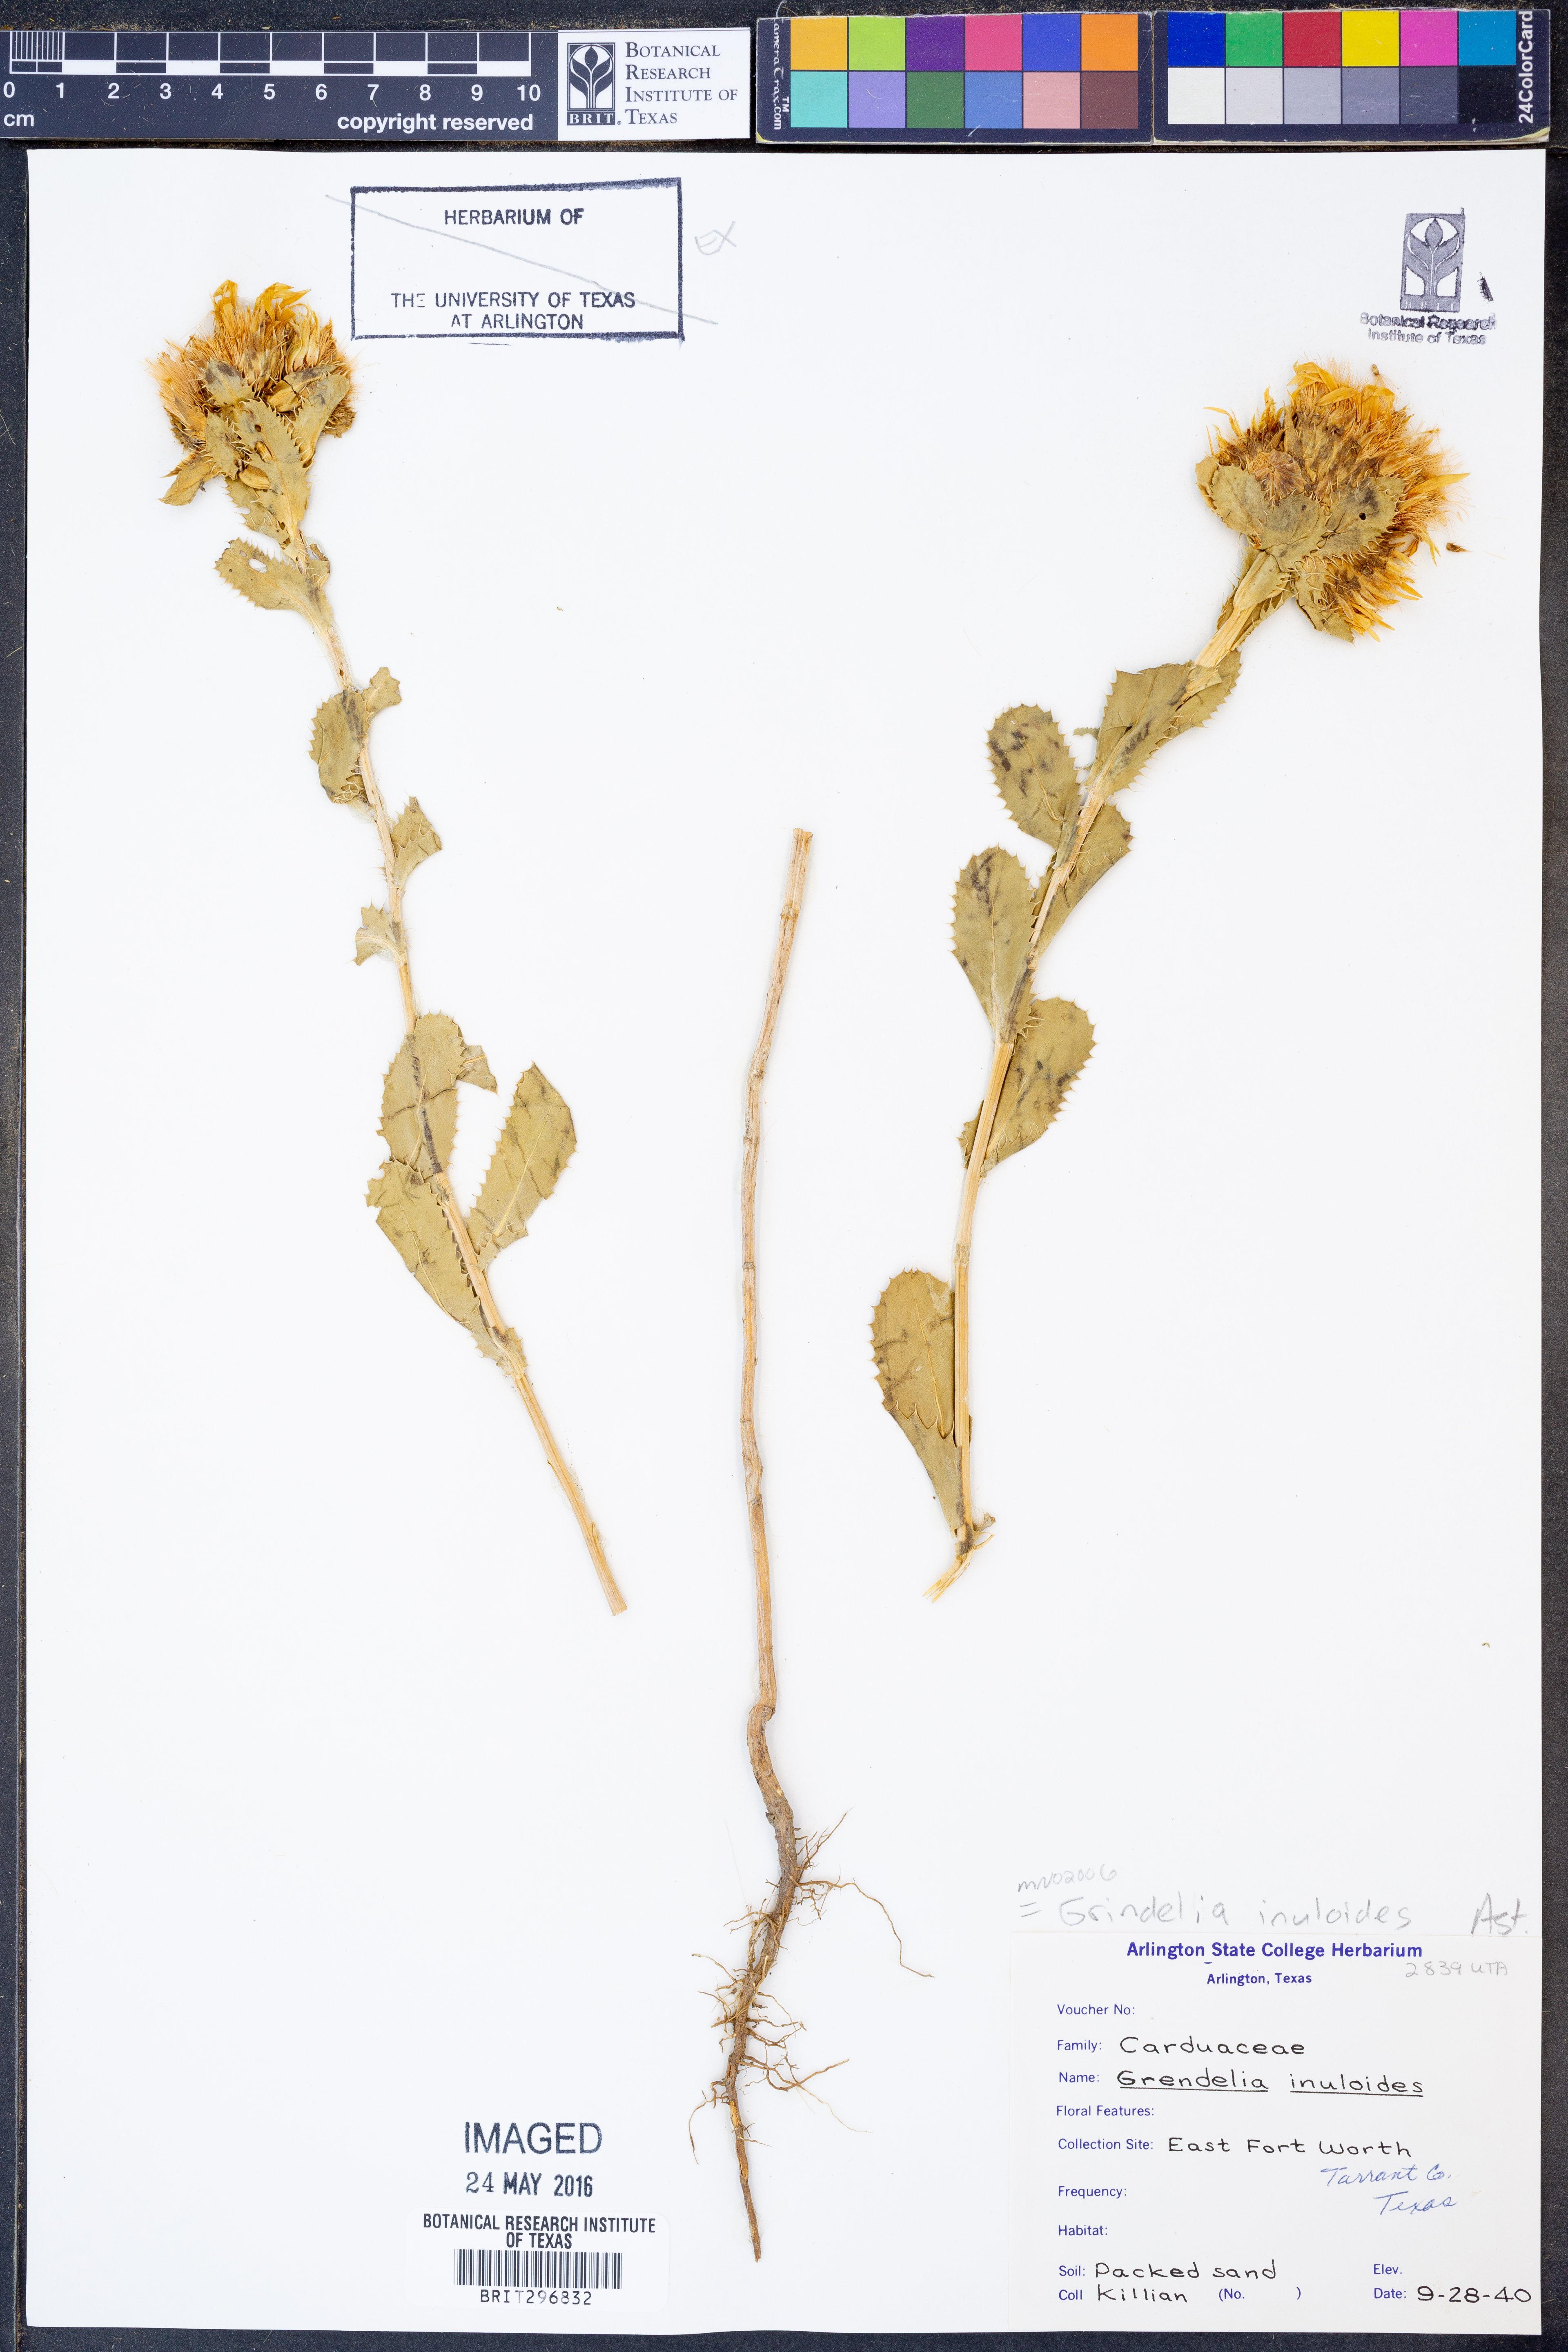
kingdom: Plantae
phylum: Tracheophyta
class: Magnoliopsida
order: Asterales
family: Asteraceae
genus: Grindelia
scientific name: Grindelia inuloides
